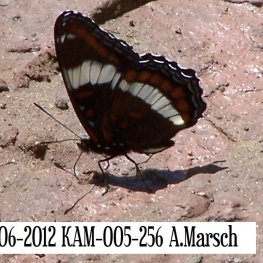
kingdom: Animalia
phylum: Arthropoda
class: Insecta
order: Lepidoptera
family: Nymphalidae
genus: Limenitis
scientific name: Limenitis arthemis
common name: Red-spotted Admiral
